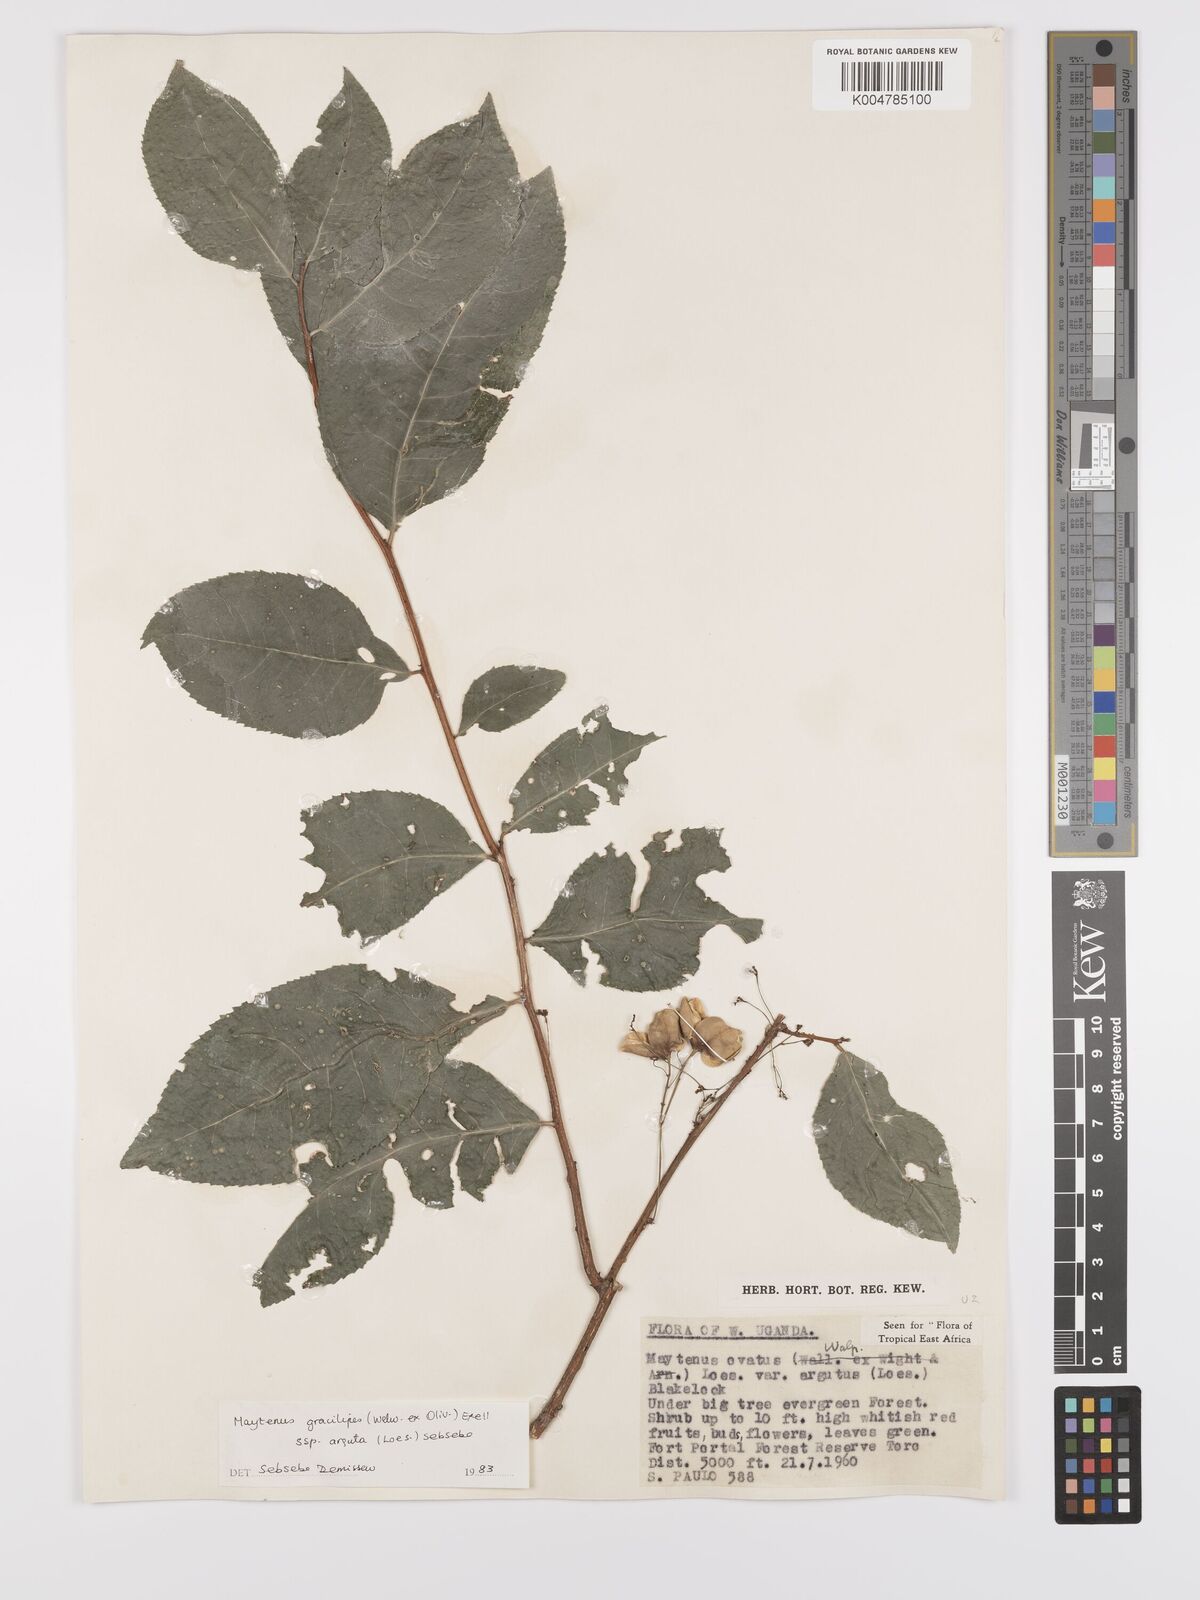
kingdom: Plantae
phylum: Tracheophyta
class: Magnoliopsida
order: Celastrales
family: Celastraceae
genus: Gymnosporia
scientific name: Gymnosporia gracilipes
